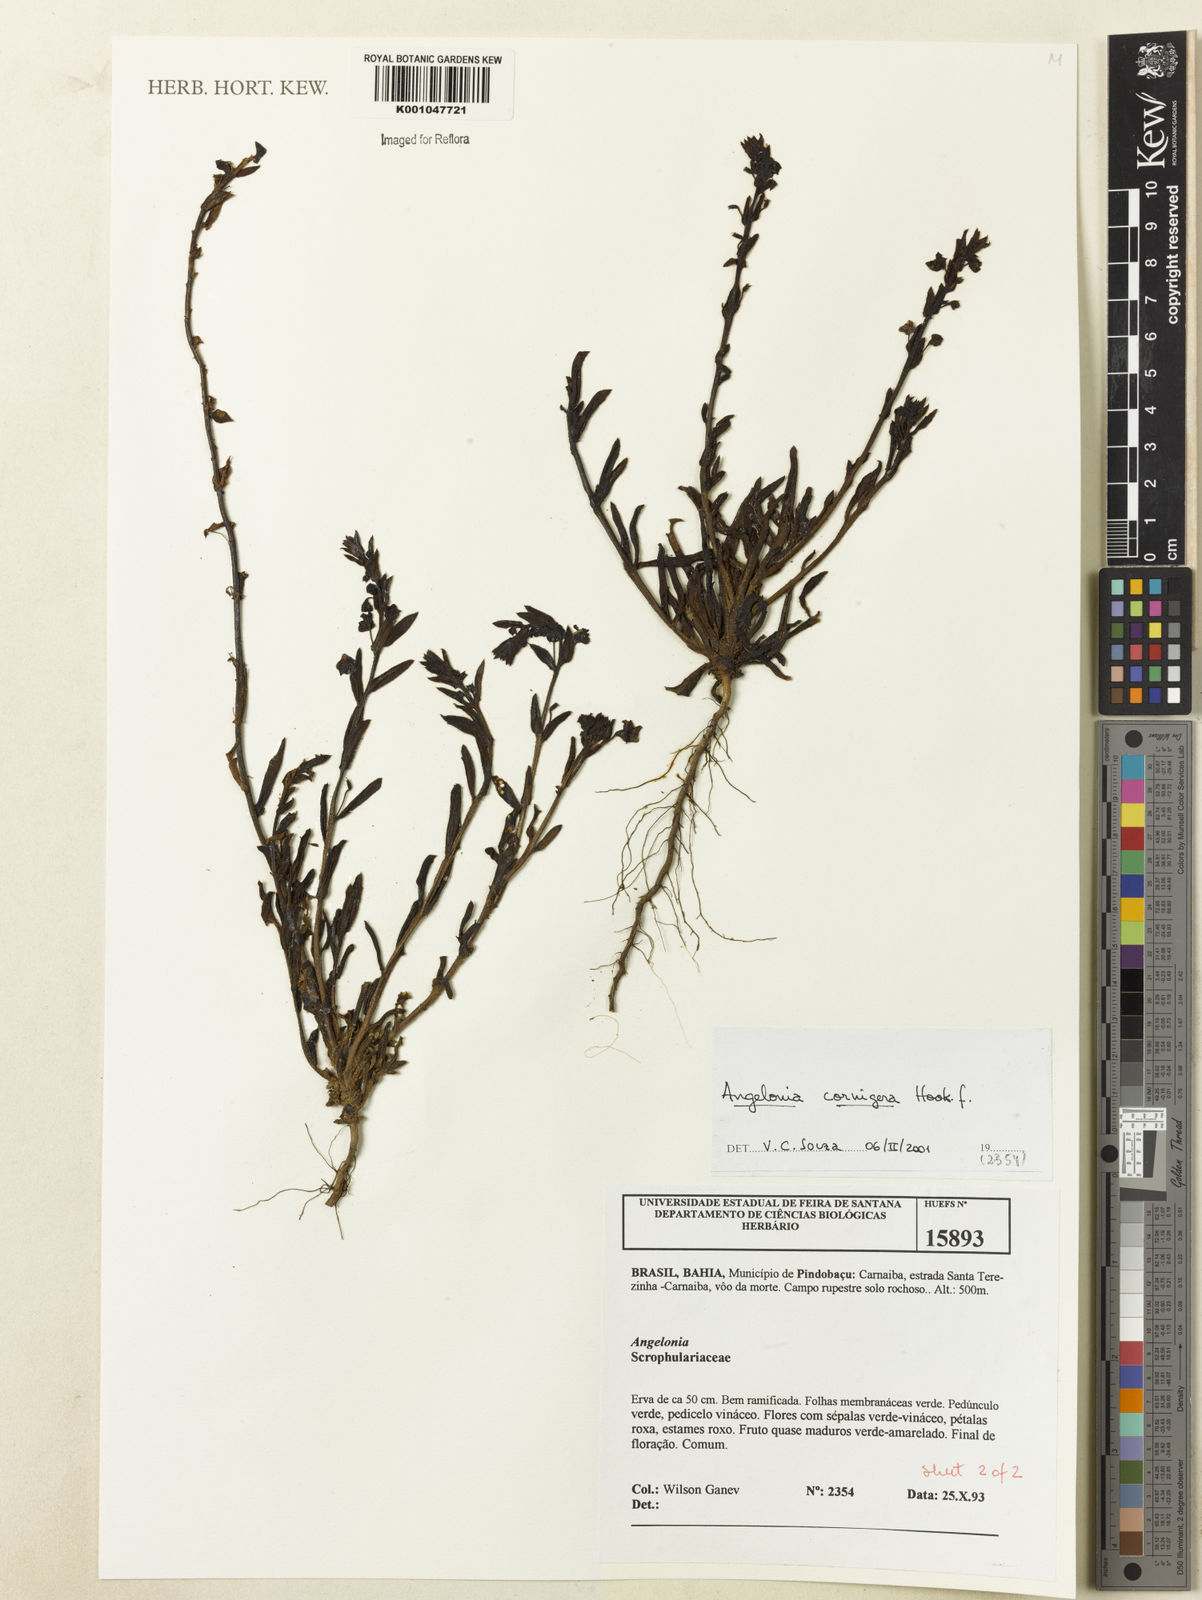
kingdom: Plantae
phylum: Tracheophyta
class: Magnoliopsida
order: Lamiales
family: Plantaginaceae
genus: Angelonia
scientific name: Angelonia cornigera
